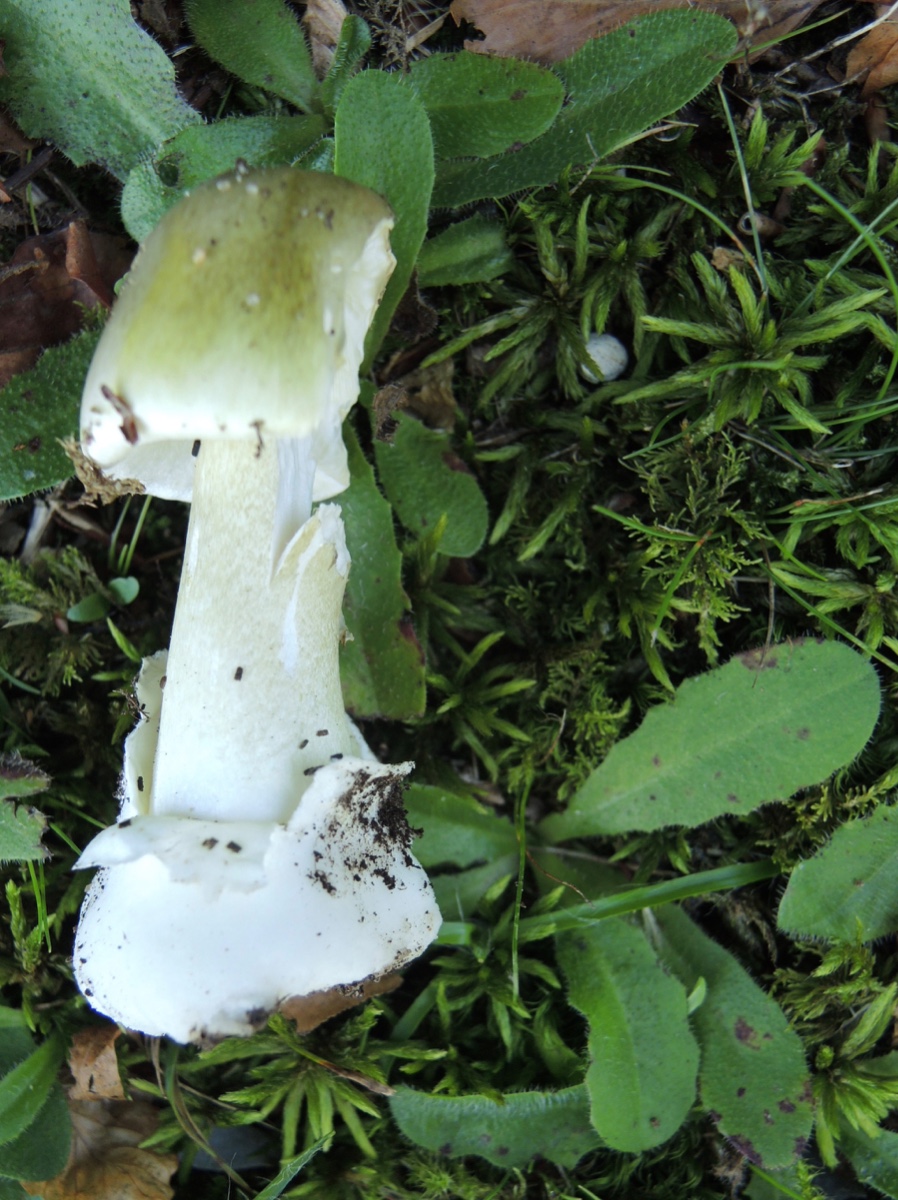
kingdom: Fungi
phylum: Basidiomycota
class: Agaricomycetes
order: Agaricales
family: Amanitaceae
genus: Amanita
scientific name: Amanita phalloides
